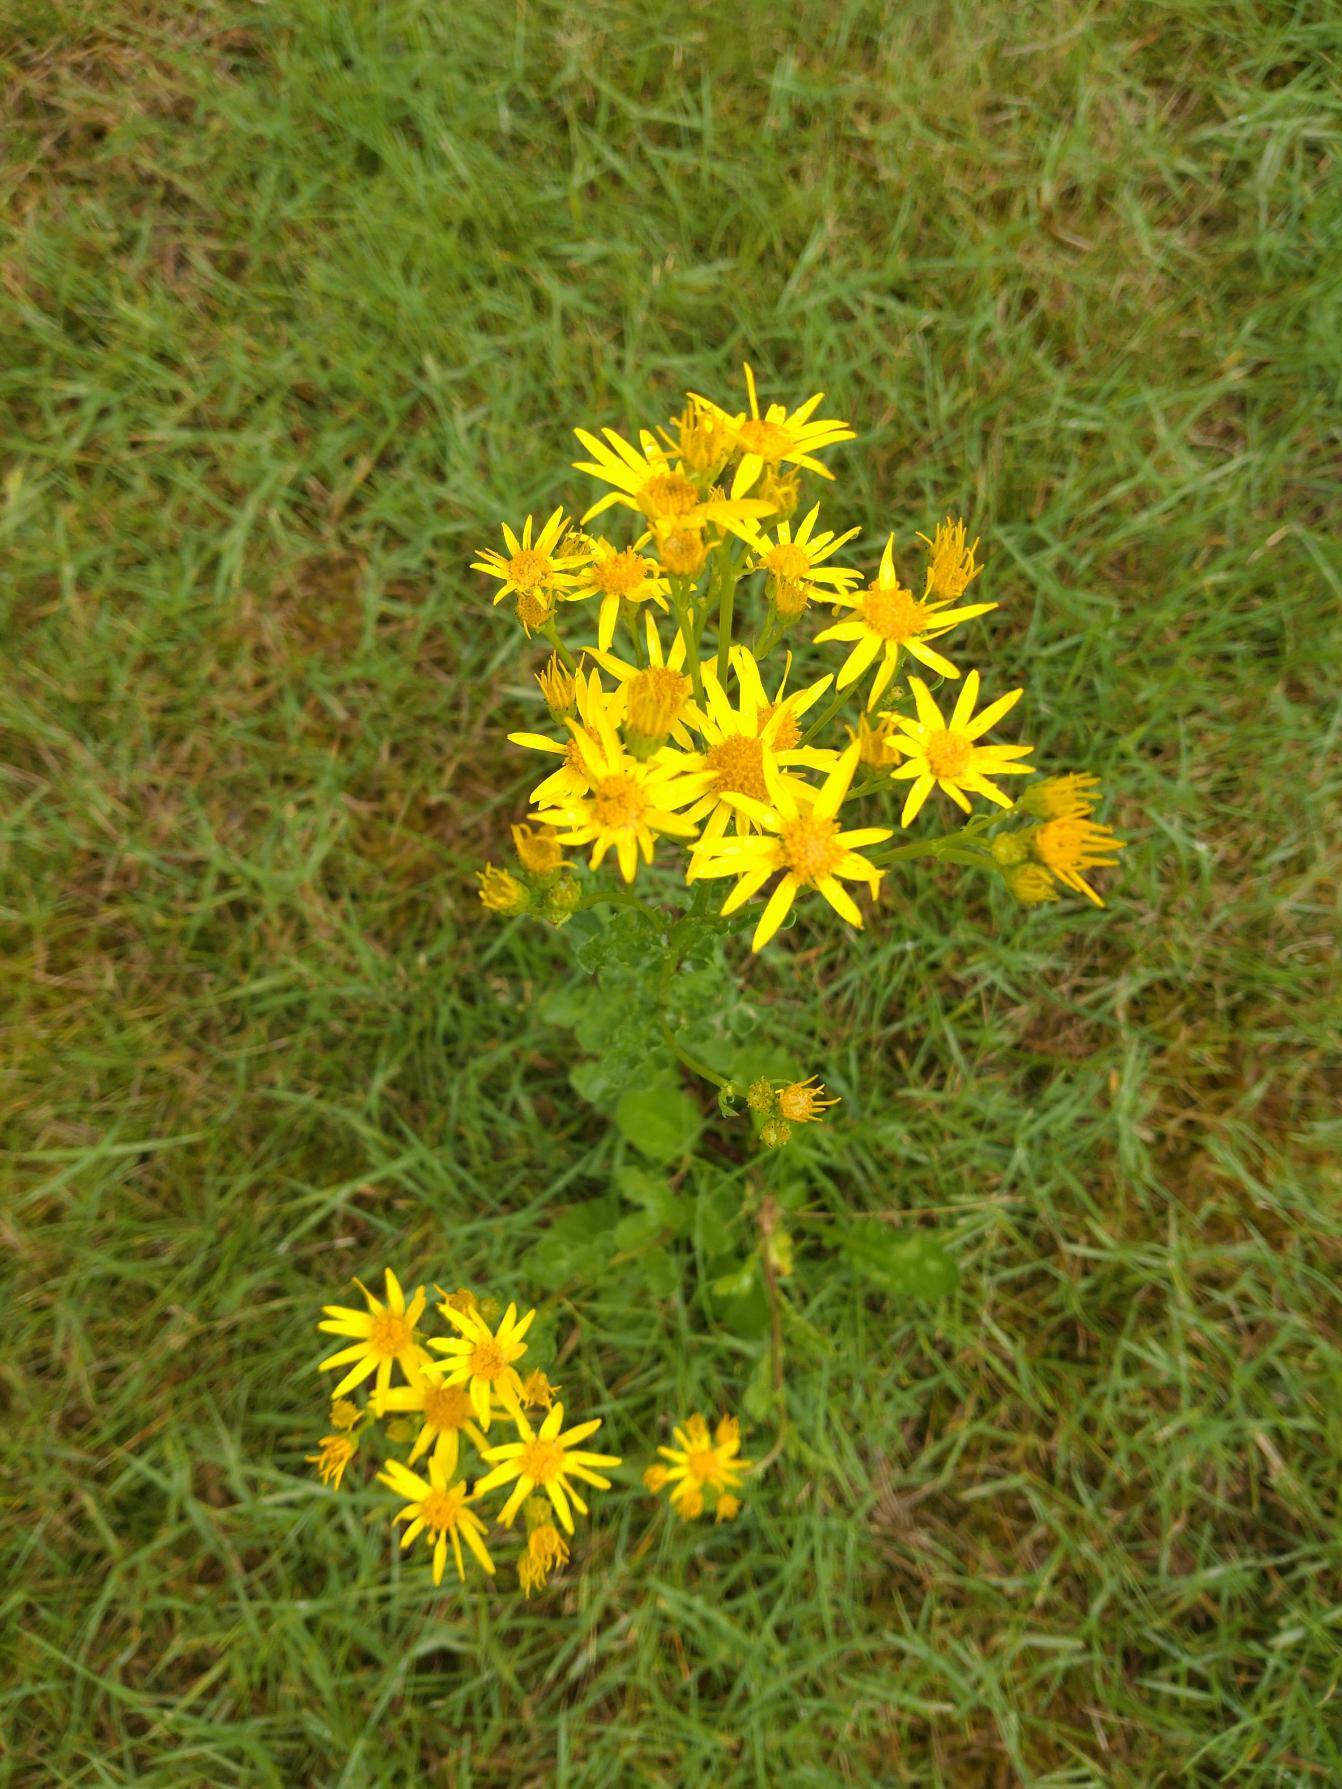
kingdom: Plantae
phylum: Tracheophyta
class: Magnoliopsida
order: Asterales
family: Asteraceae
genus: Jacobaea
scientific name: Jacobaea vulgaris
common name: Eng-brandbæger
